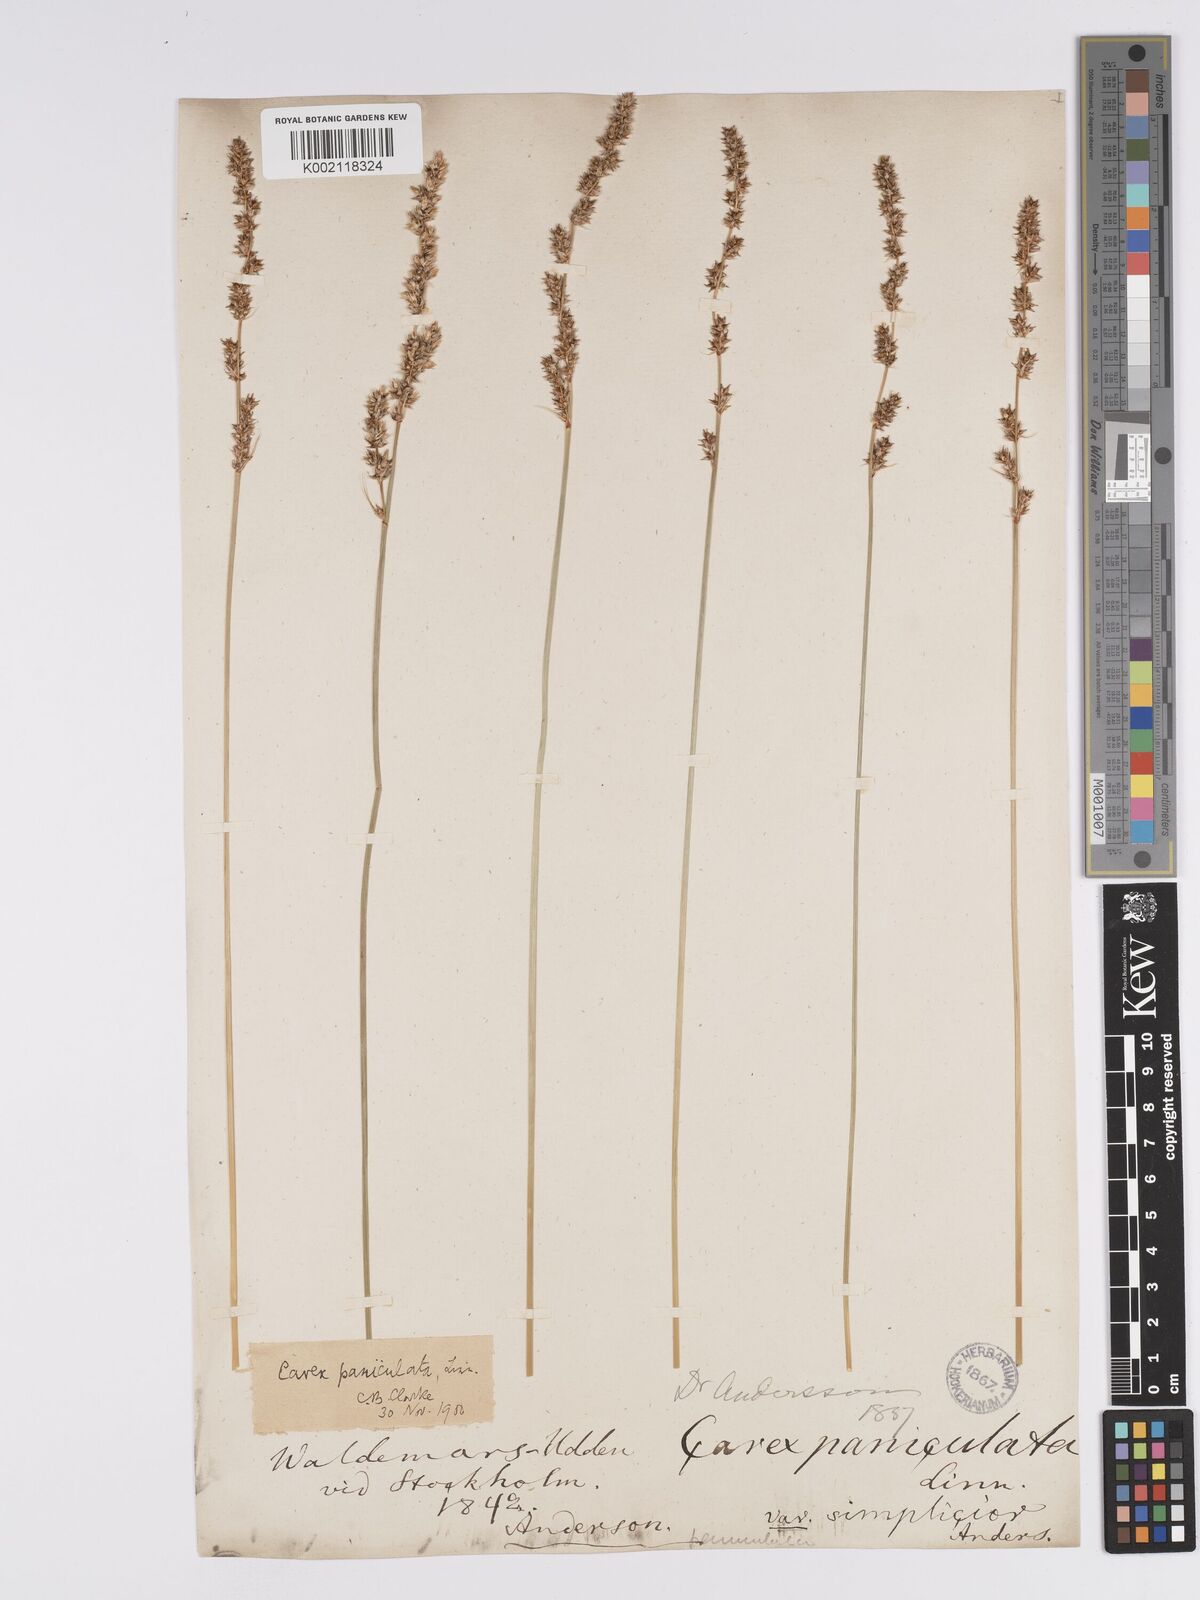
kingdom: Plantae
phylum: Tracheophyta
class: Liliopsida
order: Poales
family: Cyperaceae
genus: Carex
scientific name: Carex paniculata
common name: Greater tussock-sedge
